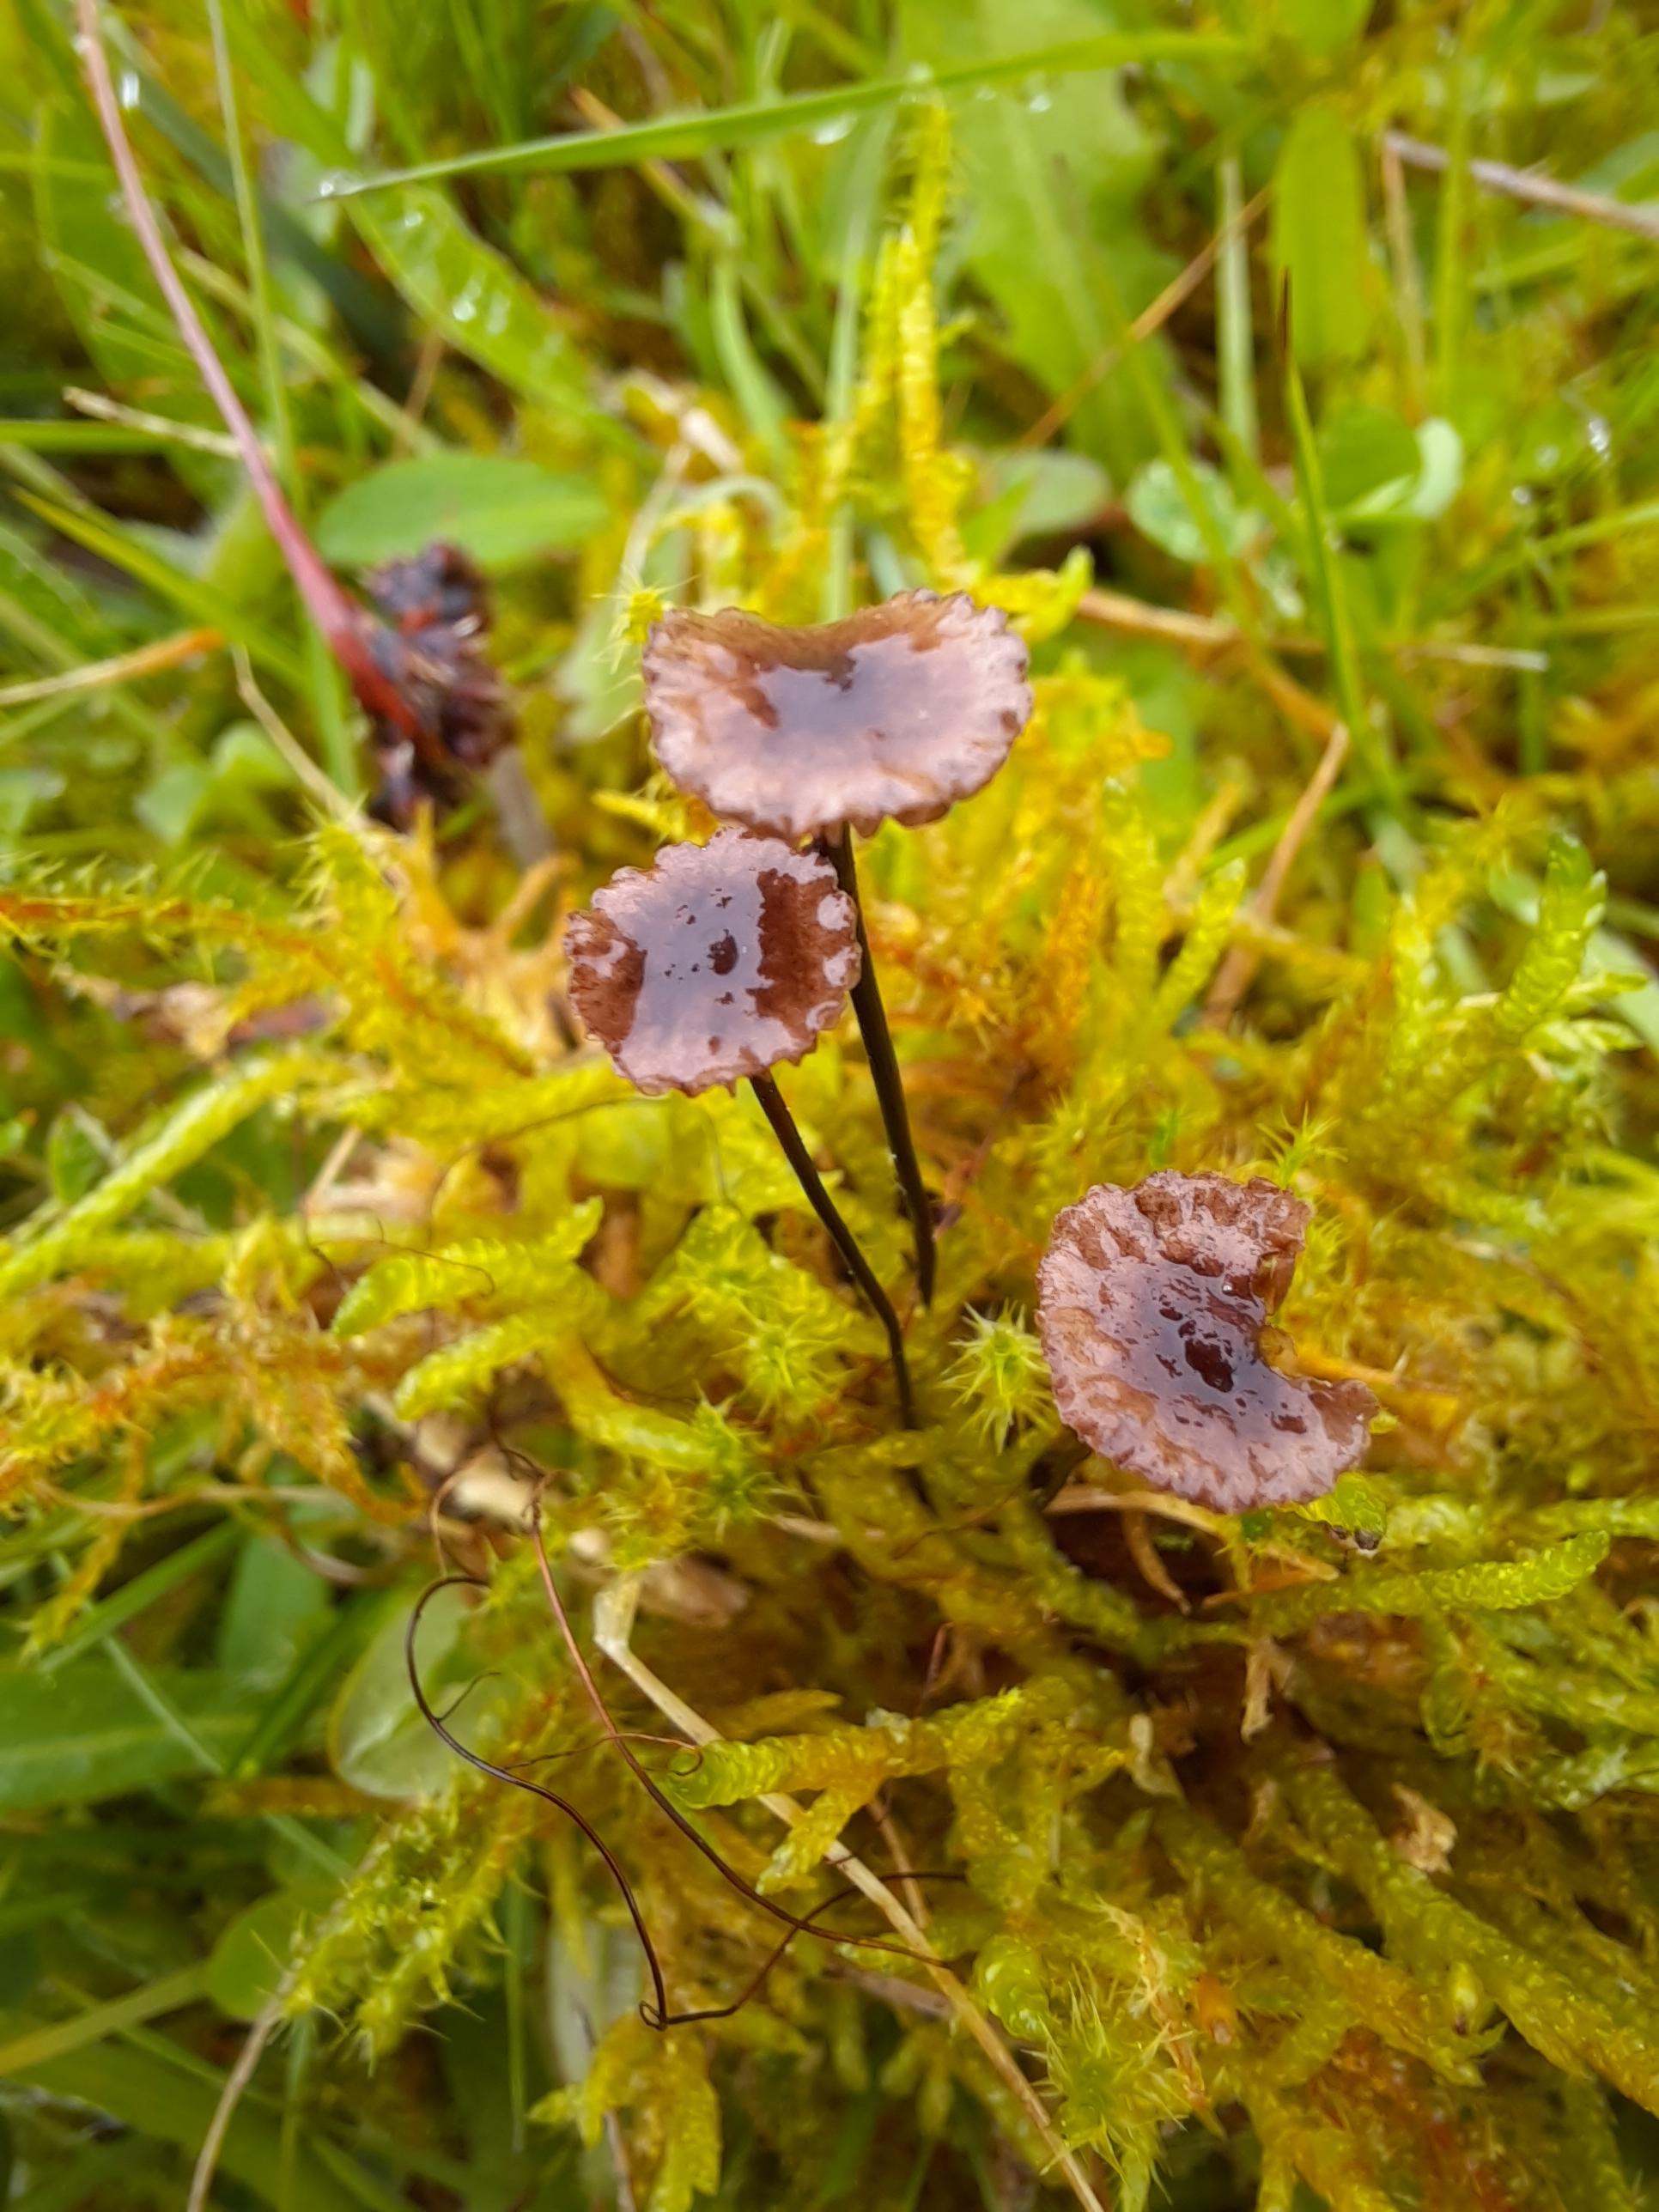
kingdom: Fungi
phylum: Basidiomycota
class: Agaricomycetes
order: Agaricales
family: Omphalotaceae
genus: Gymnopus
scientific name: Gymnopus androsaceus
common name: trådstokket fladhat
